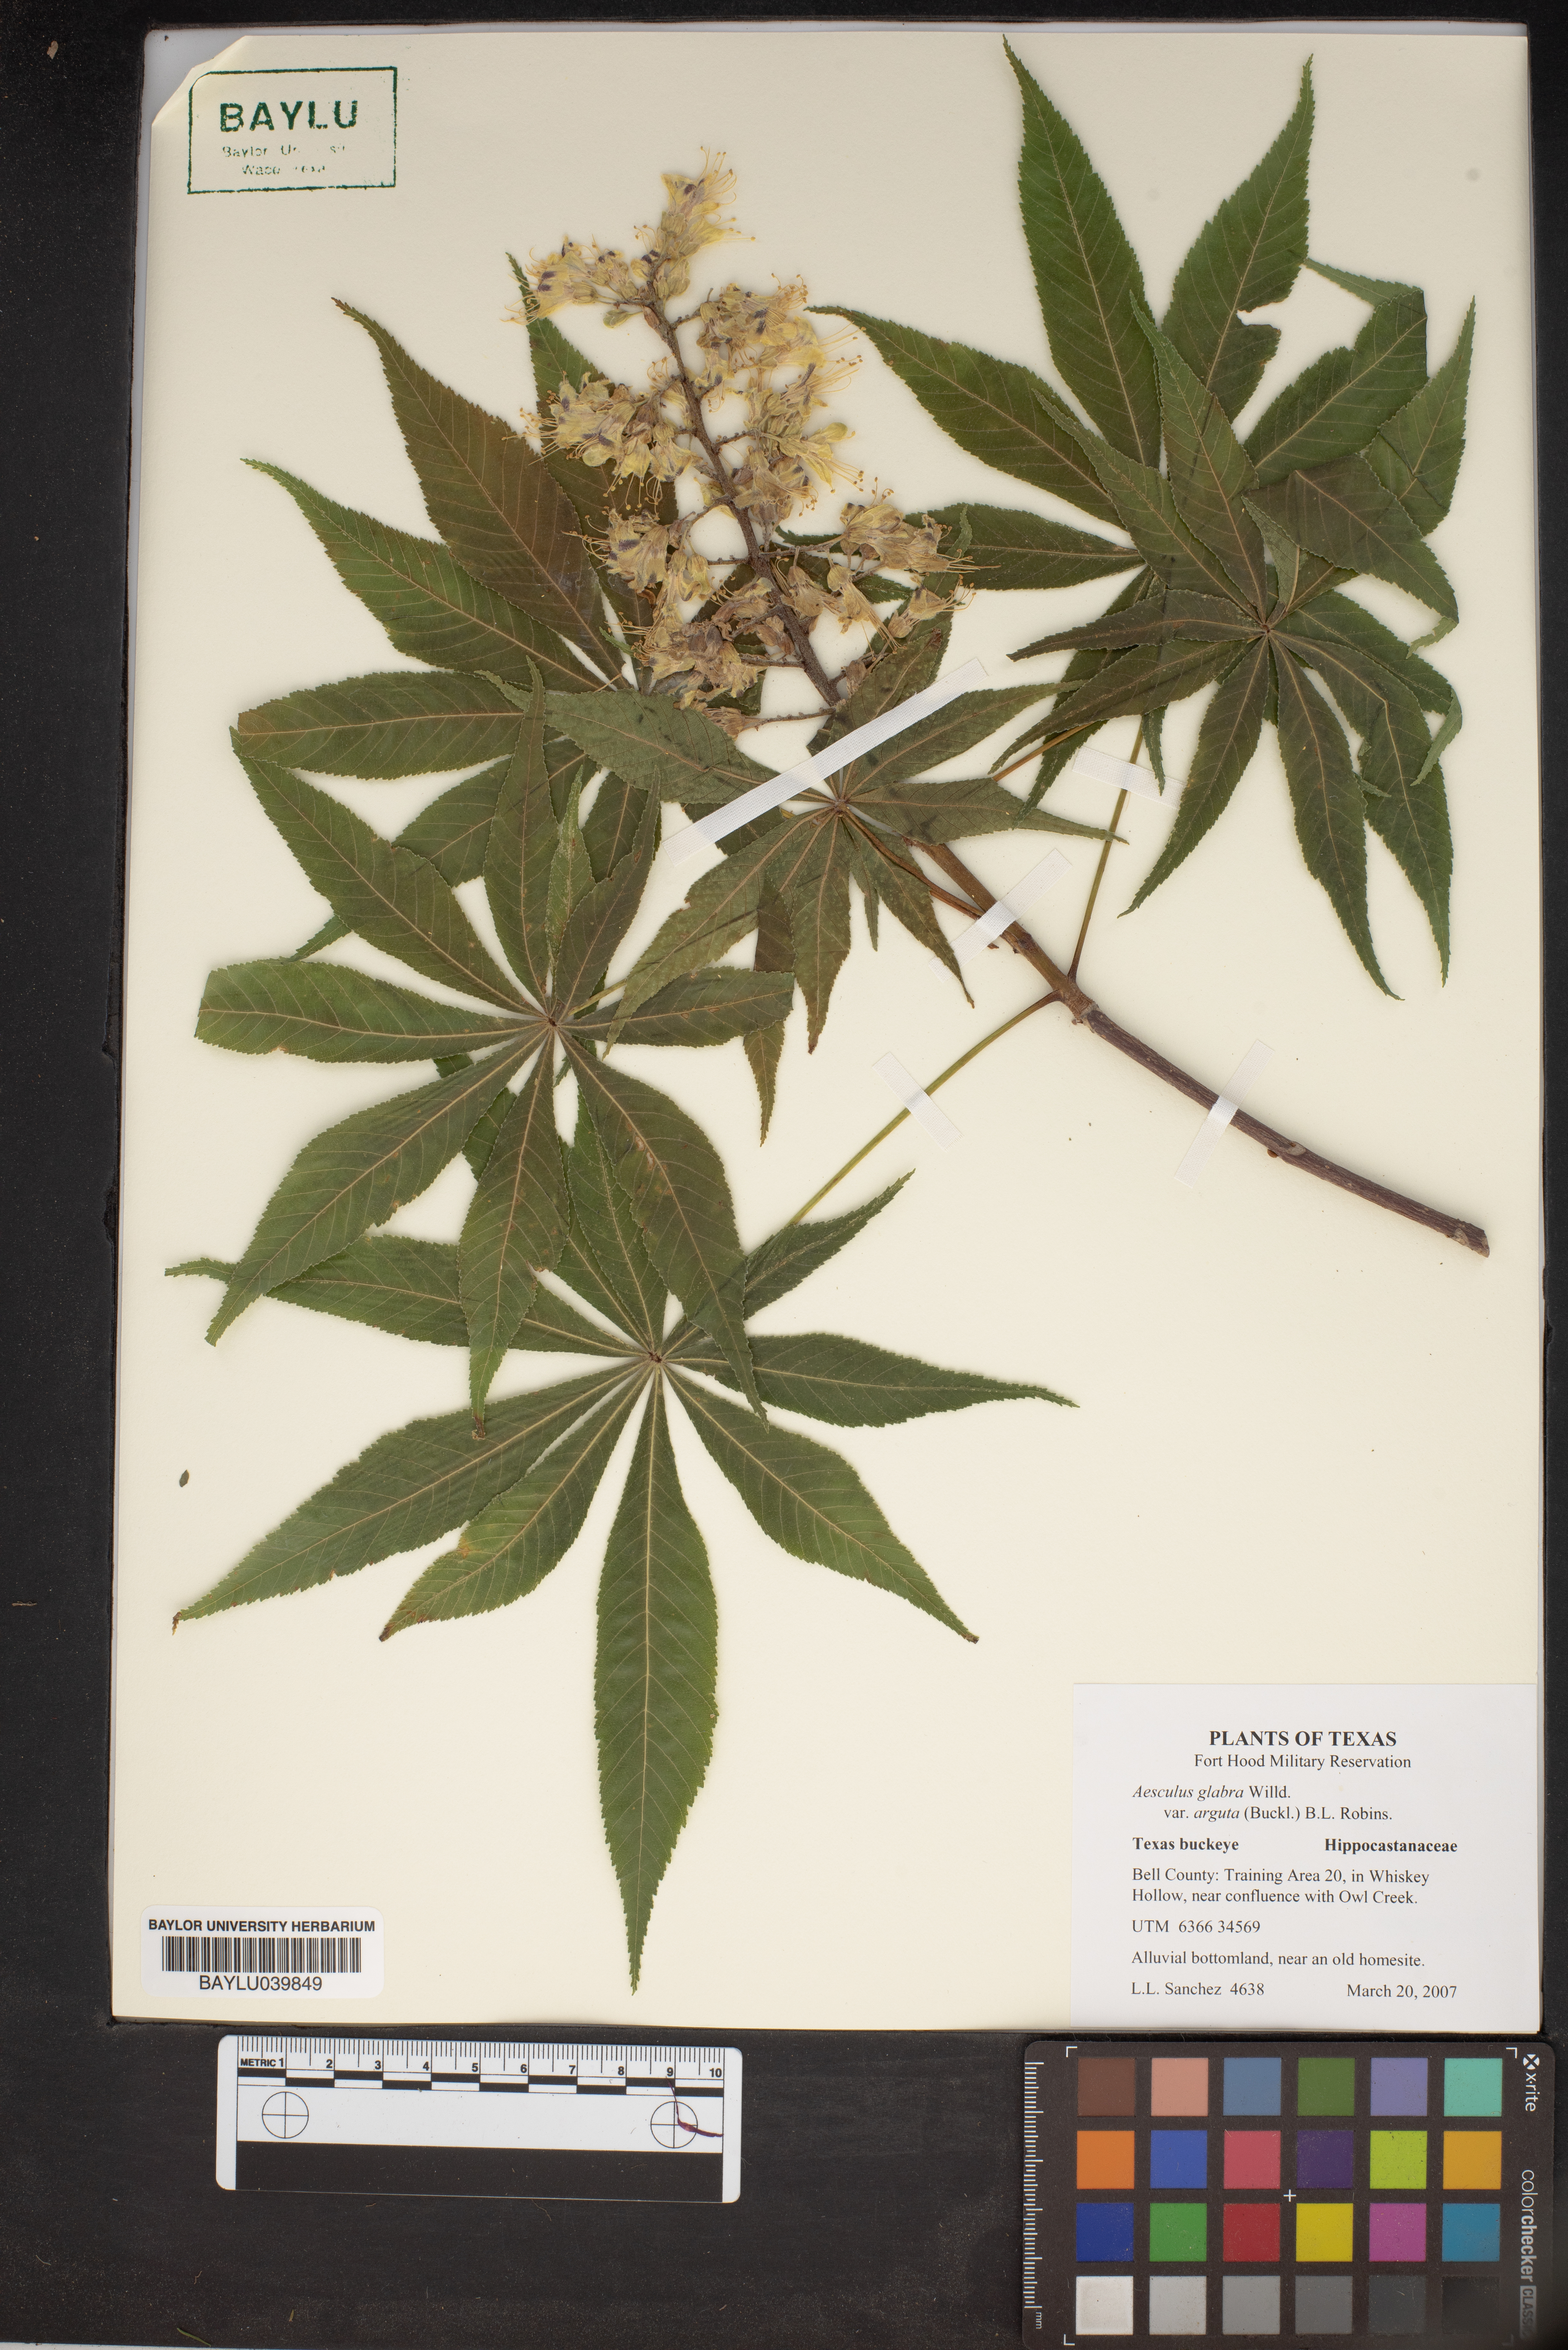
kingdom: Plantae
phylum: Tracheophyta
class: Magnoliopsida
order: Sapindales
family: Sapindaceae
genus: Aesculus
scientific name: Aesculus glabra
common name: Ohio buckeye
